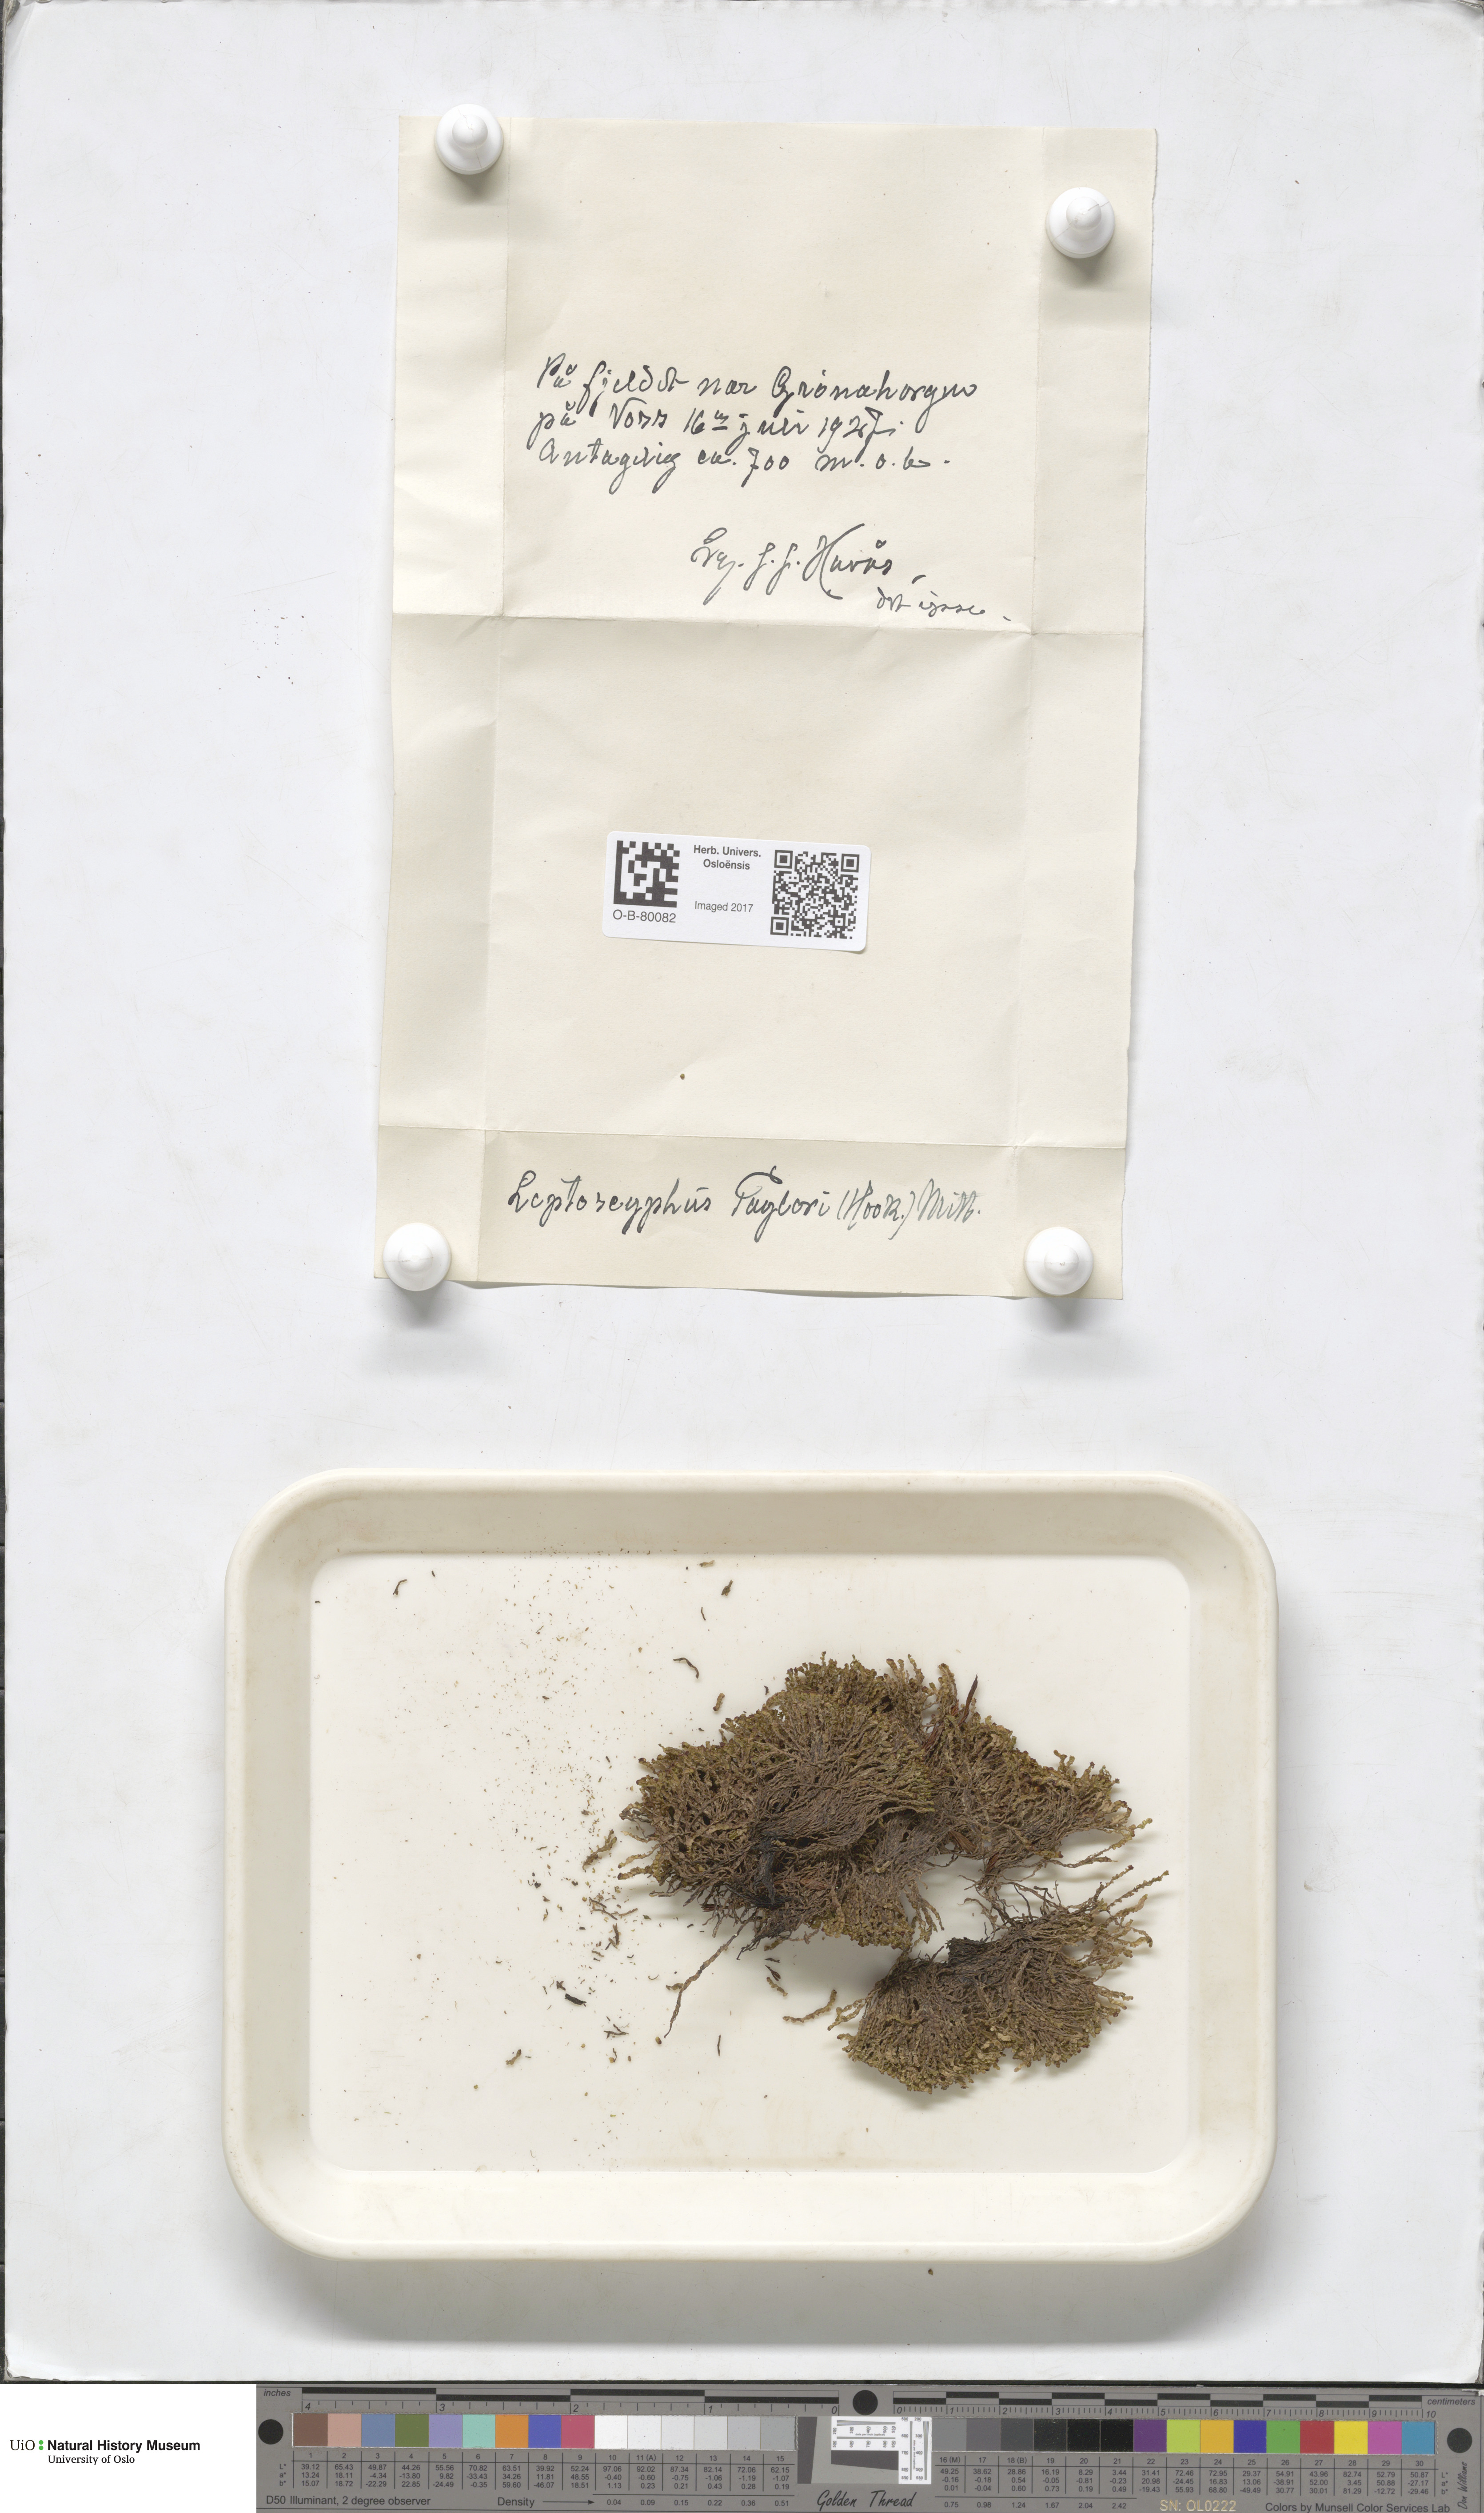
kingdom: Plantae
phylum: Marchantiophyta
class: Jungermanniopsida
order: Jungermanniales
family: Myliaceae
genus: Mylia
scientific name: Mylia taylorii
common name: Taylor s flapwort
